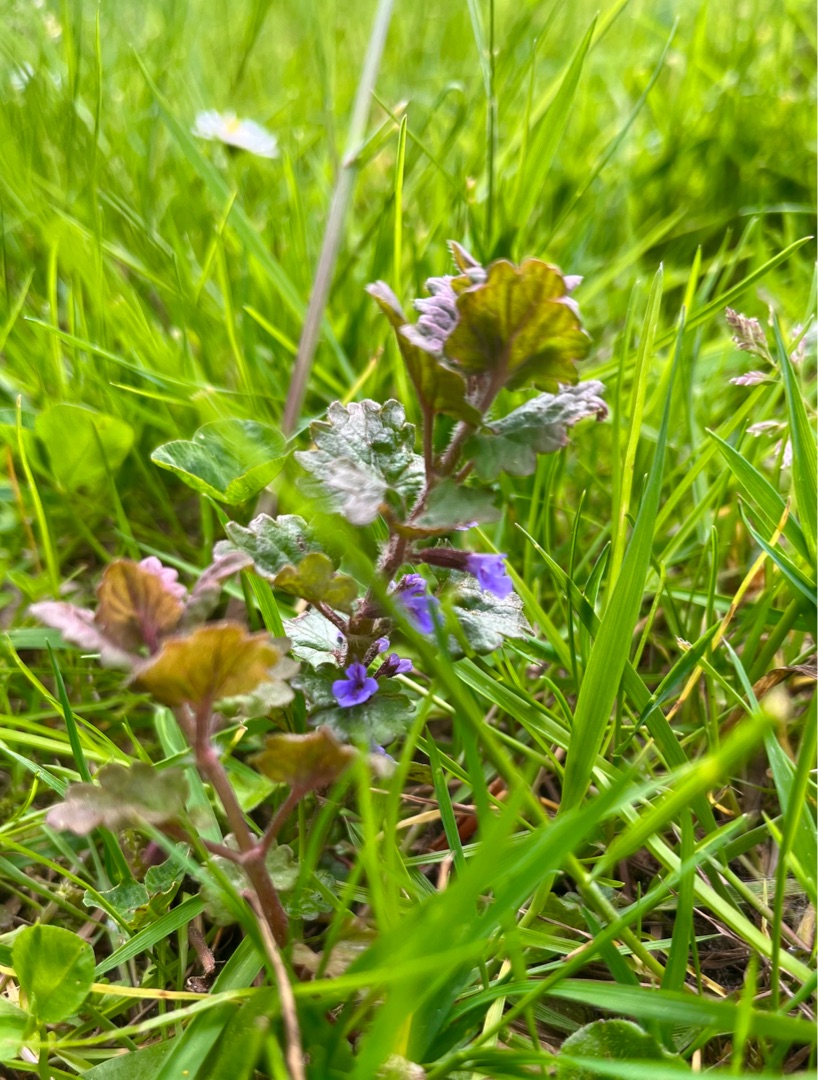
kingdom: Plantae
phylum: Tracheophyta
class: Magnoliopsida
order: Lamiales
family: Lamiaceae
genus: Glechoma
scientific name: Glechoma hederacea
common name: Korsknap
